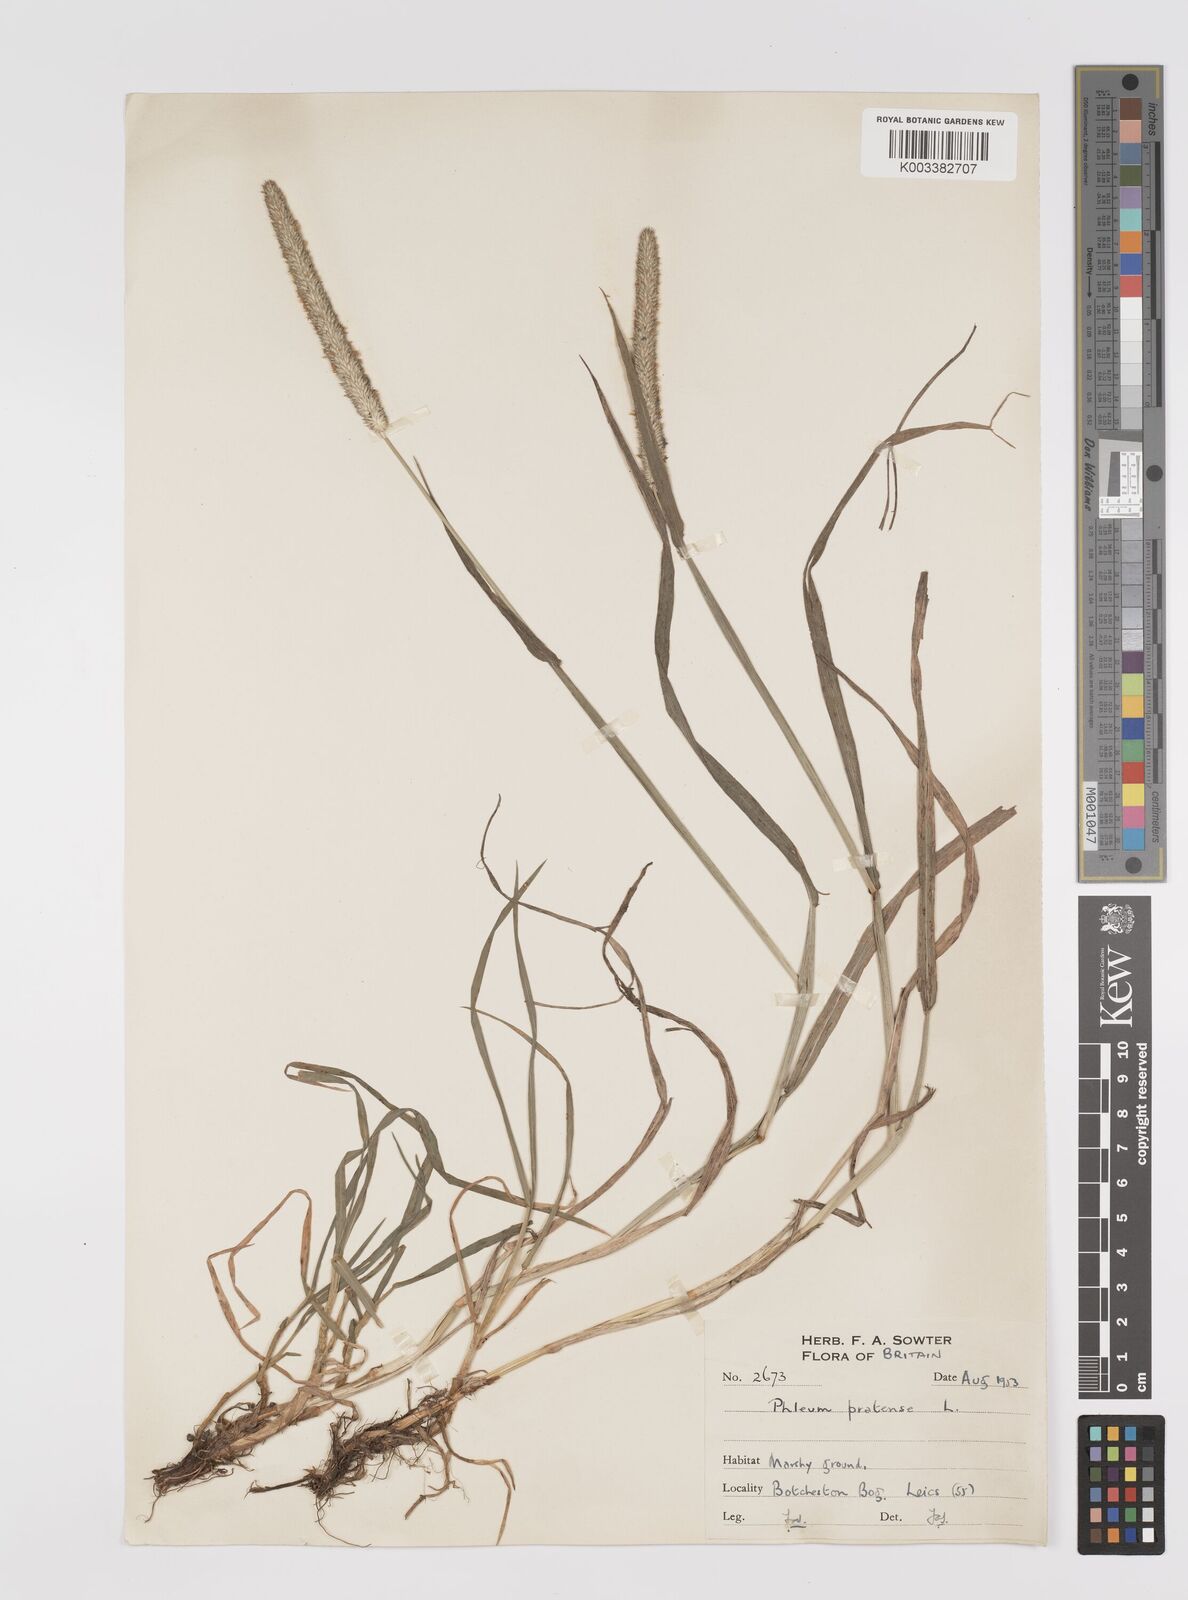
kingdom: Plantae
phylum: Tracheophyta
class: Liliopsida
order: Poales
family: Poaceae
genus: Phleum
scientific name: Phleum pratense
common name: Timothy grass
